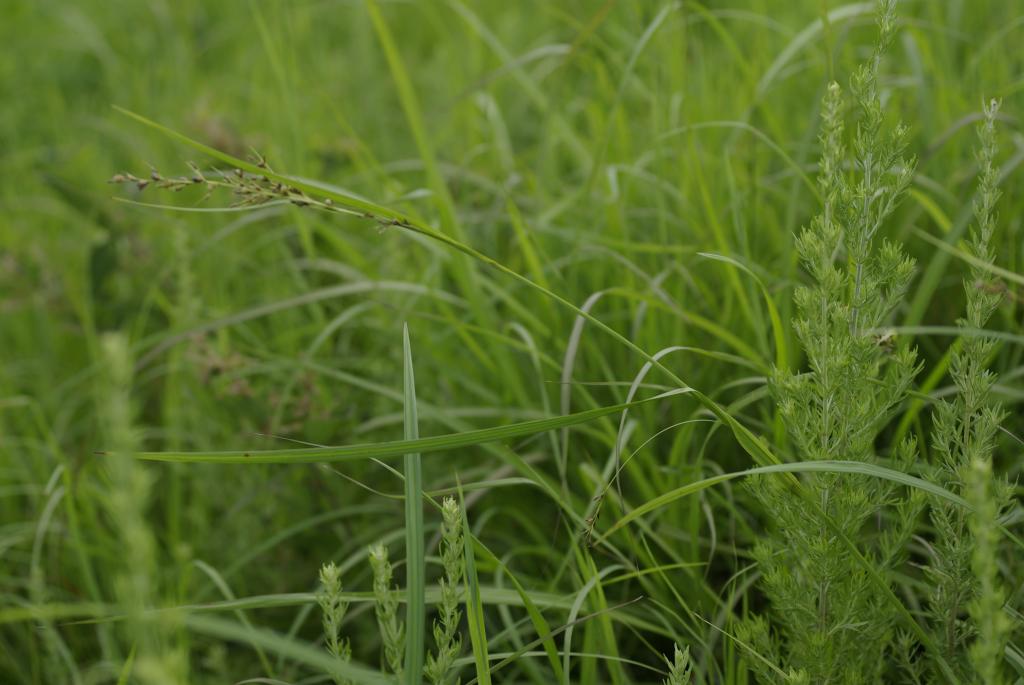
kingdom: Plantae
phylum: Tracheophyta
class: Liliopsida
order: Poales
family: Cyperaceae
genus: Scleria
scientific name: Scleria radula
